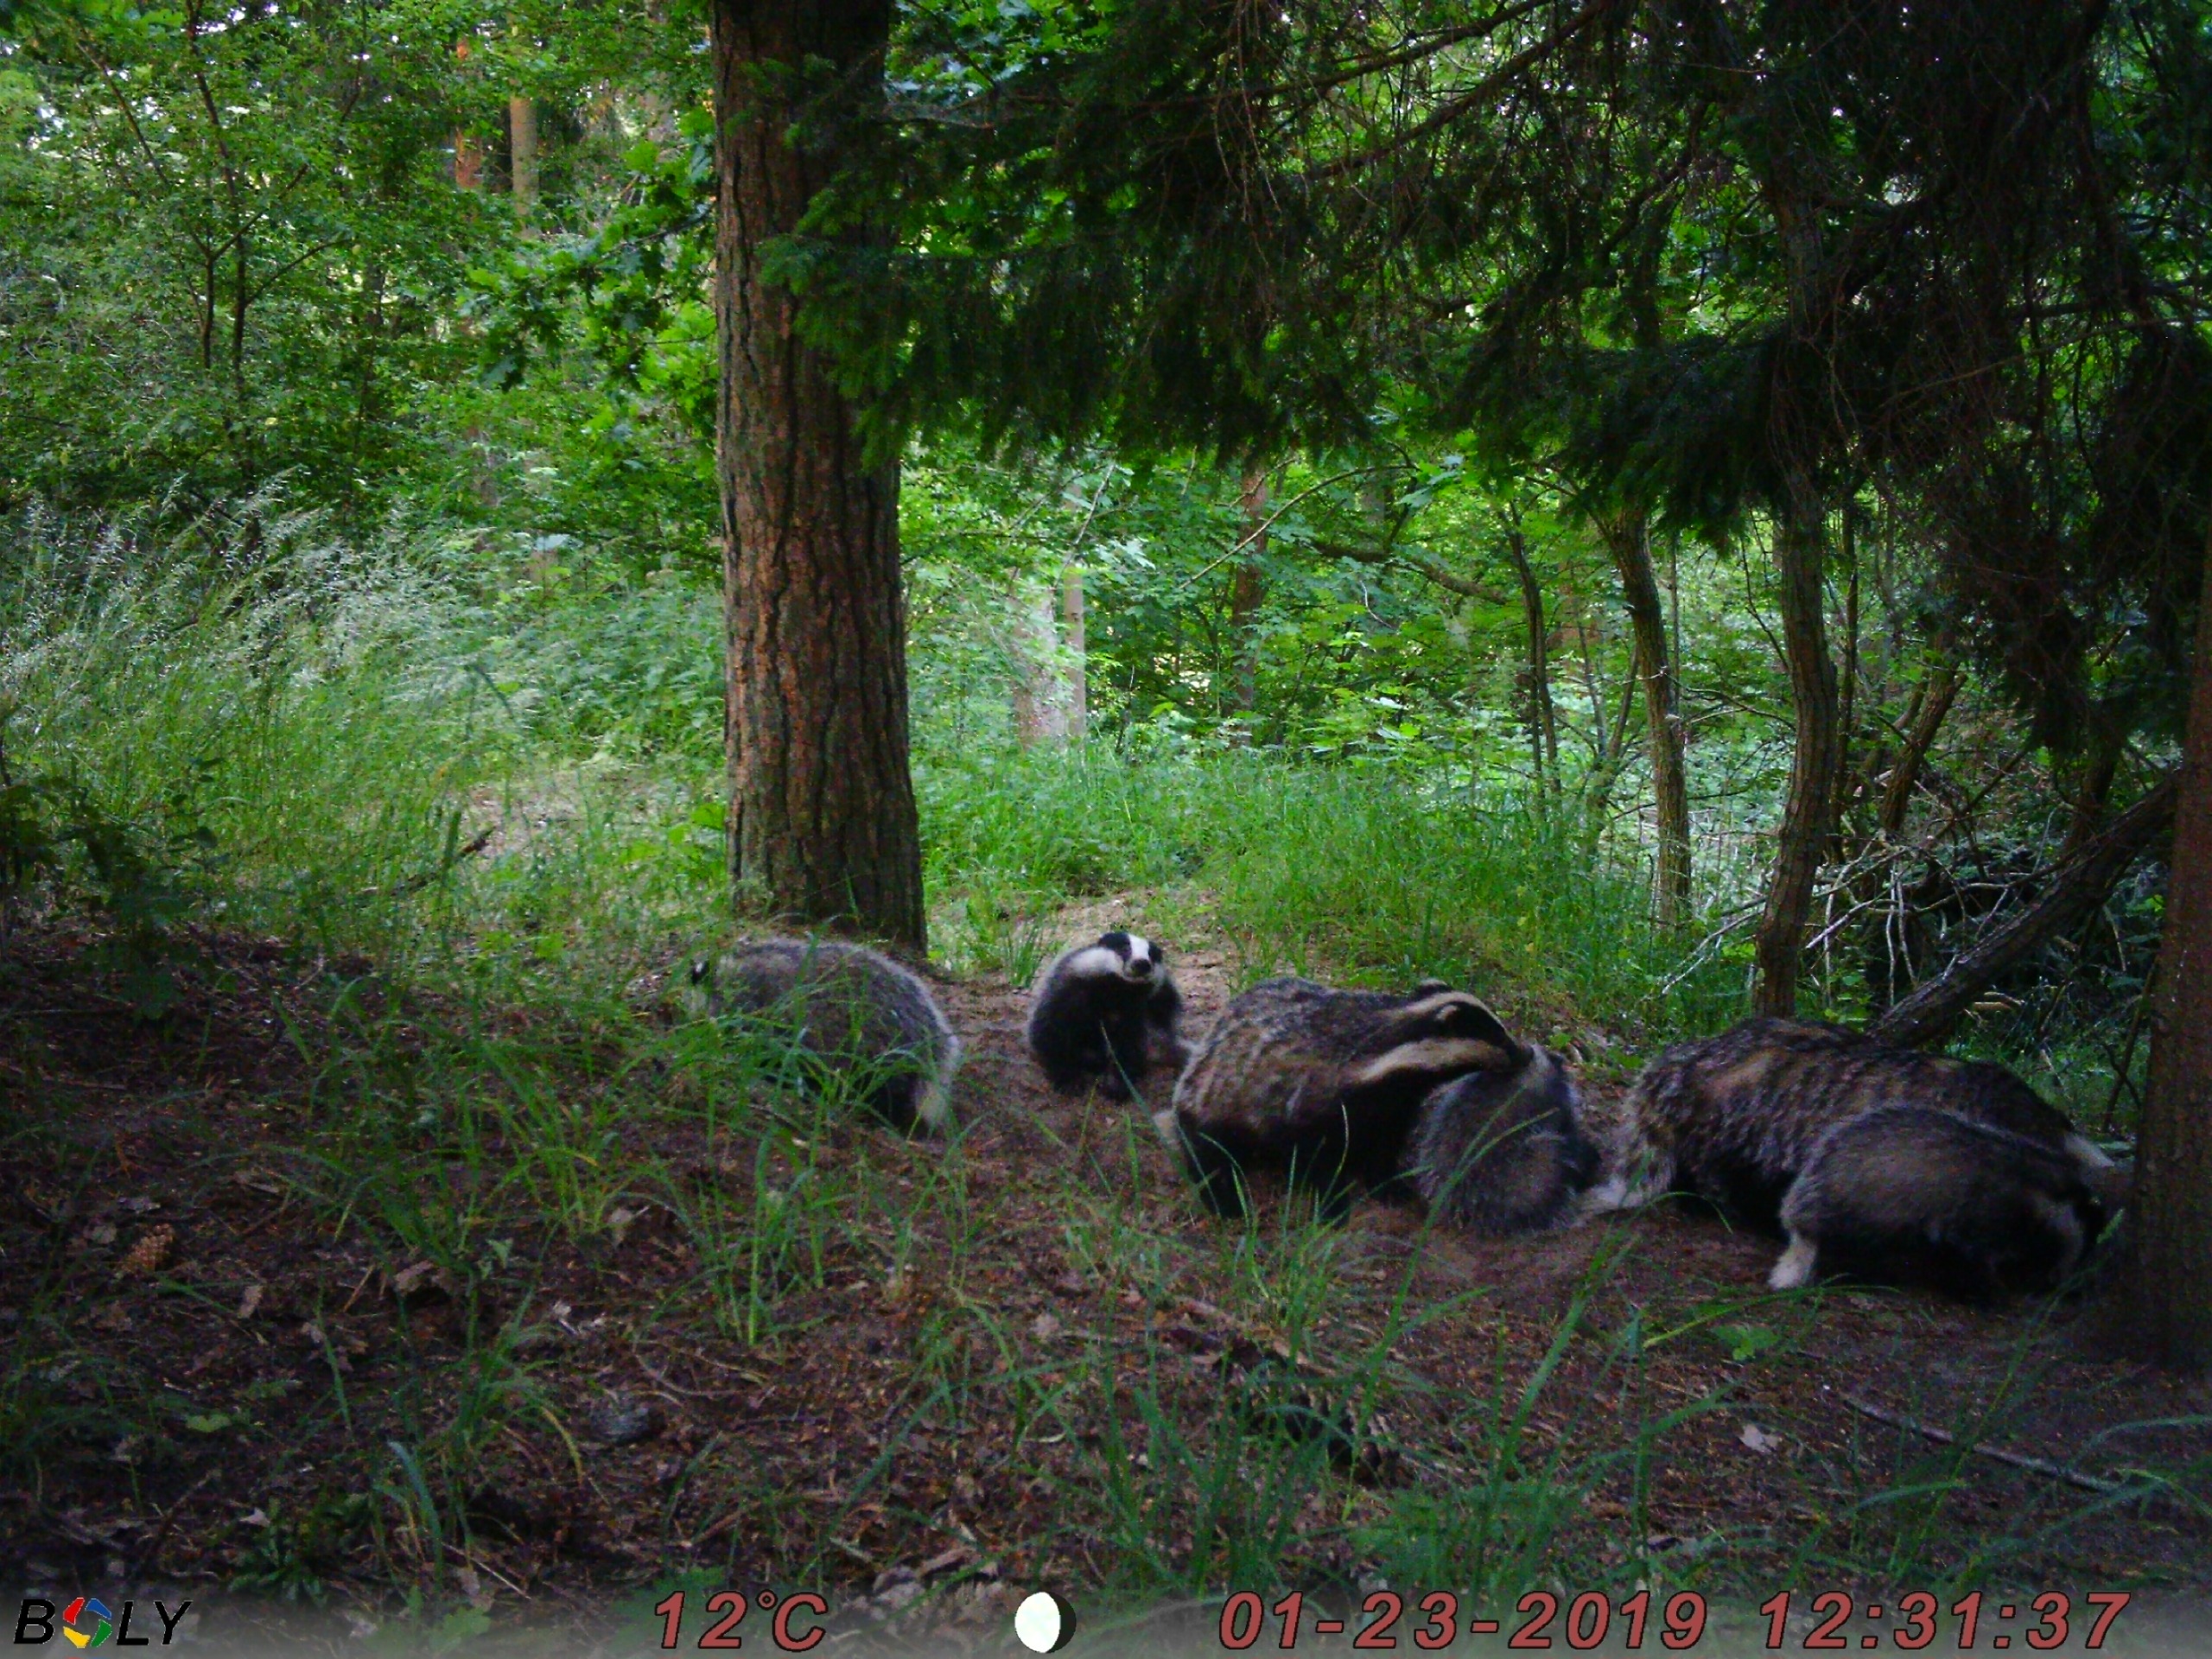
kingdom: Animalia
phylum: Chordata
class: Mammalia
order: Carnivora
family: Mustelidae
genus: Meles
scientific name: Meles meles
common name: Grævling
